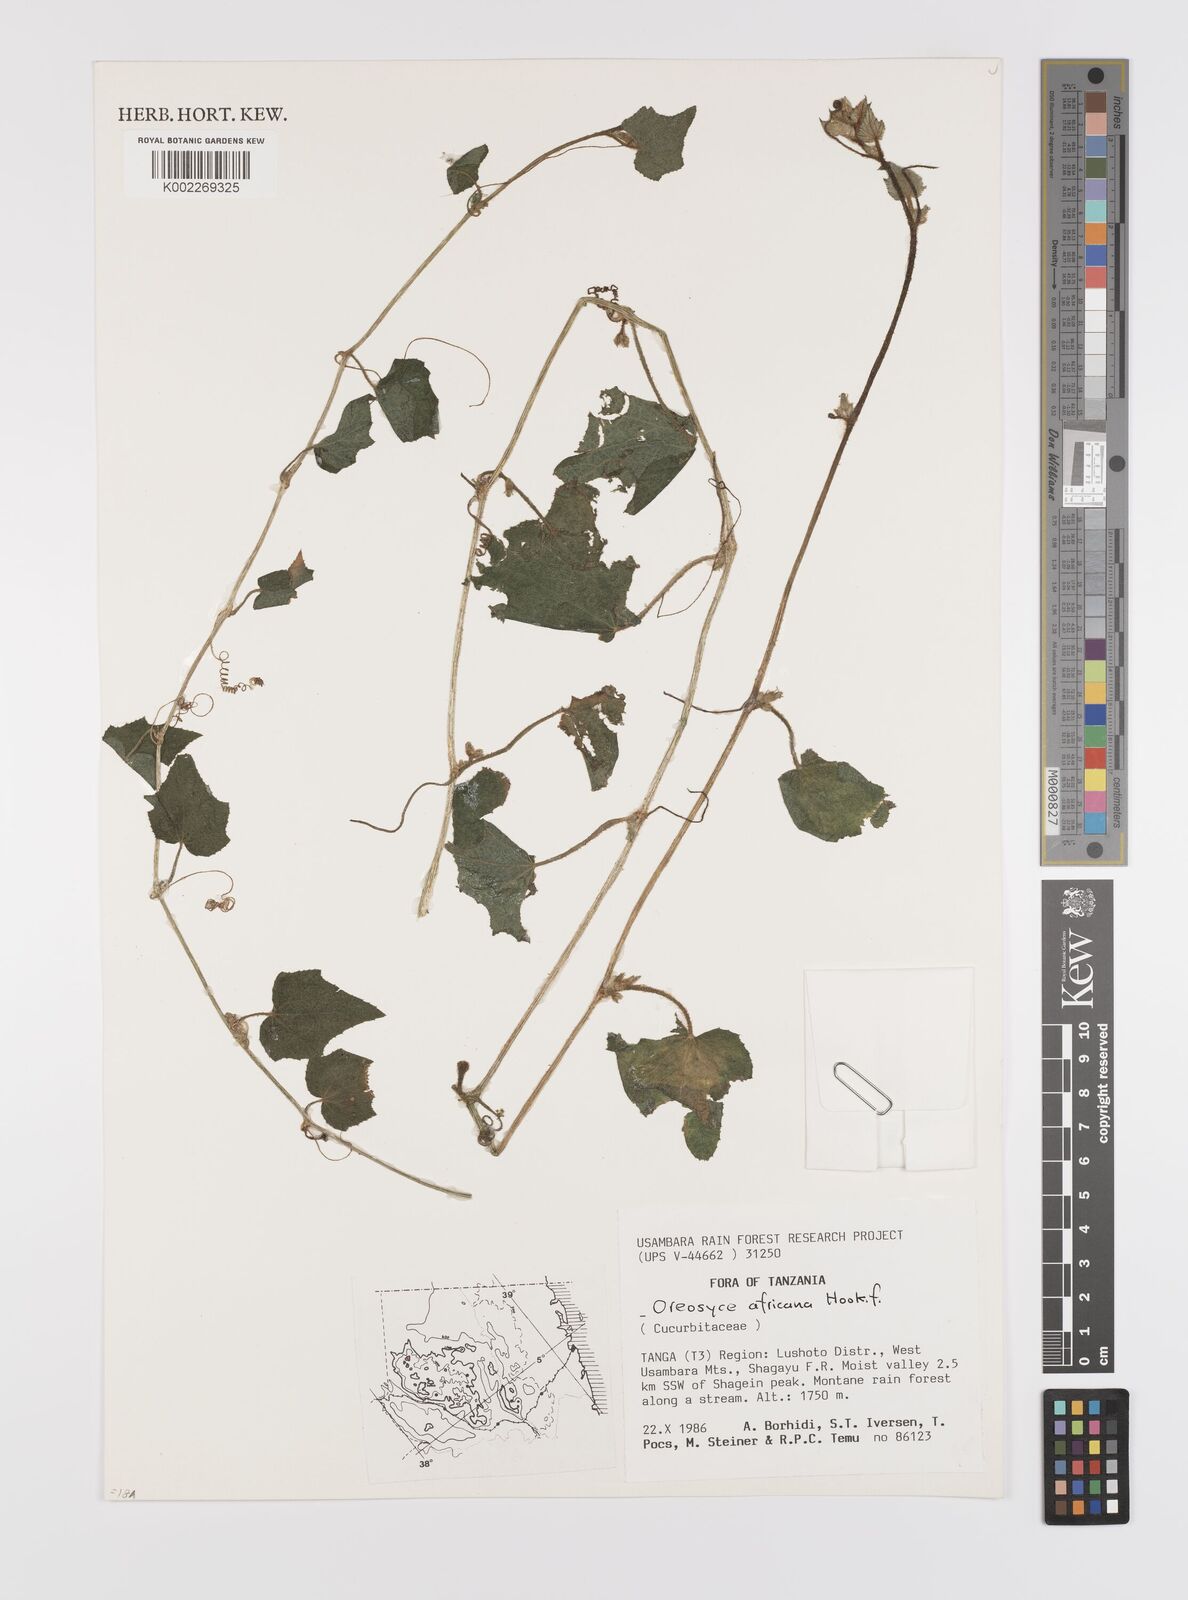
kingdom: Plantae
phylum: Tracheophyta
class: Magnoliopsida
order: Cucurbitales
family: Cucurbitaceae
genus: Cucumis
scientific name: Cucumis oreosyce
